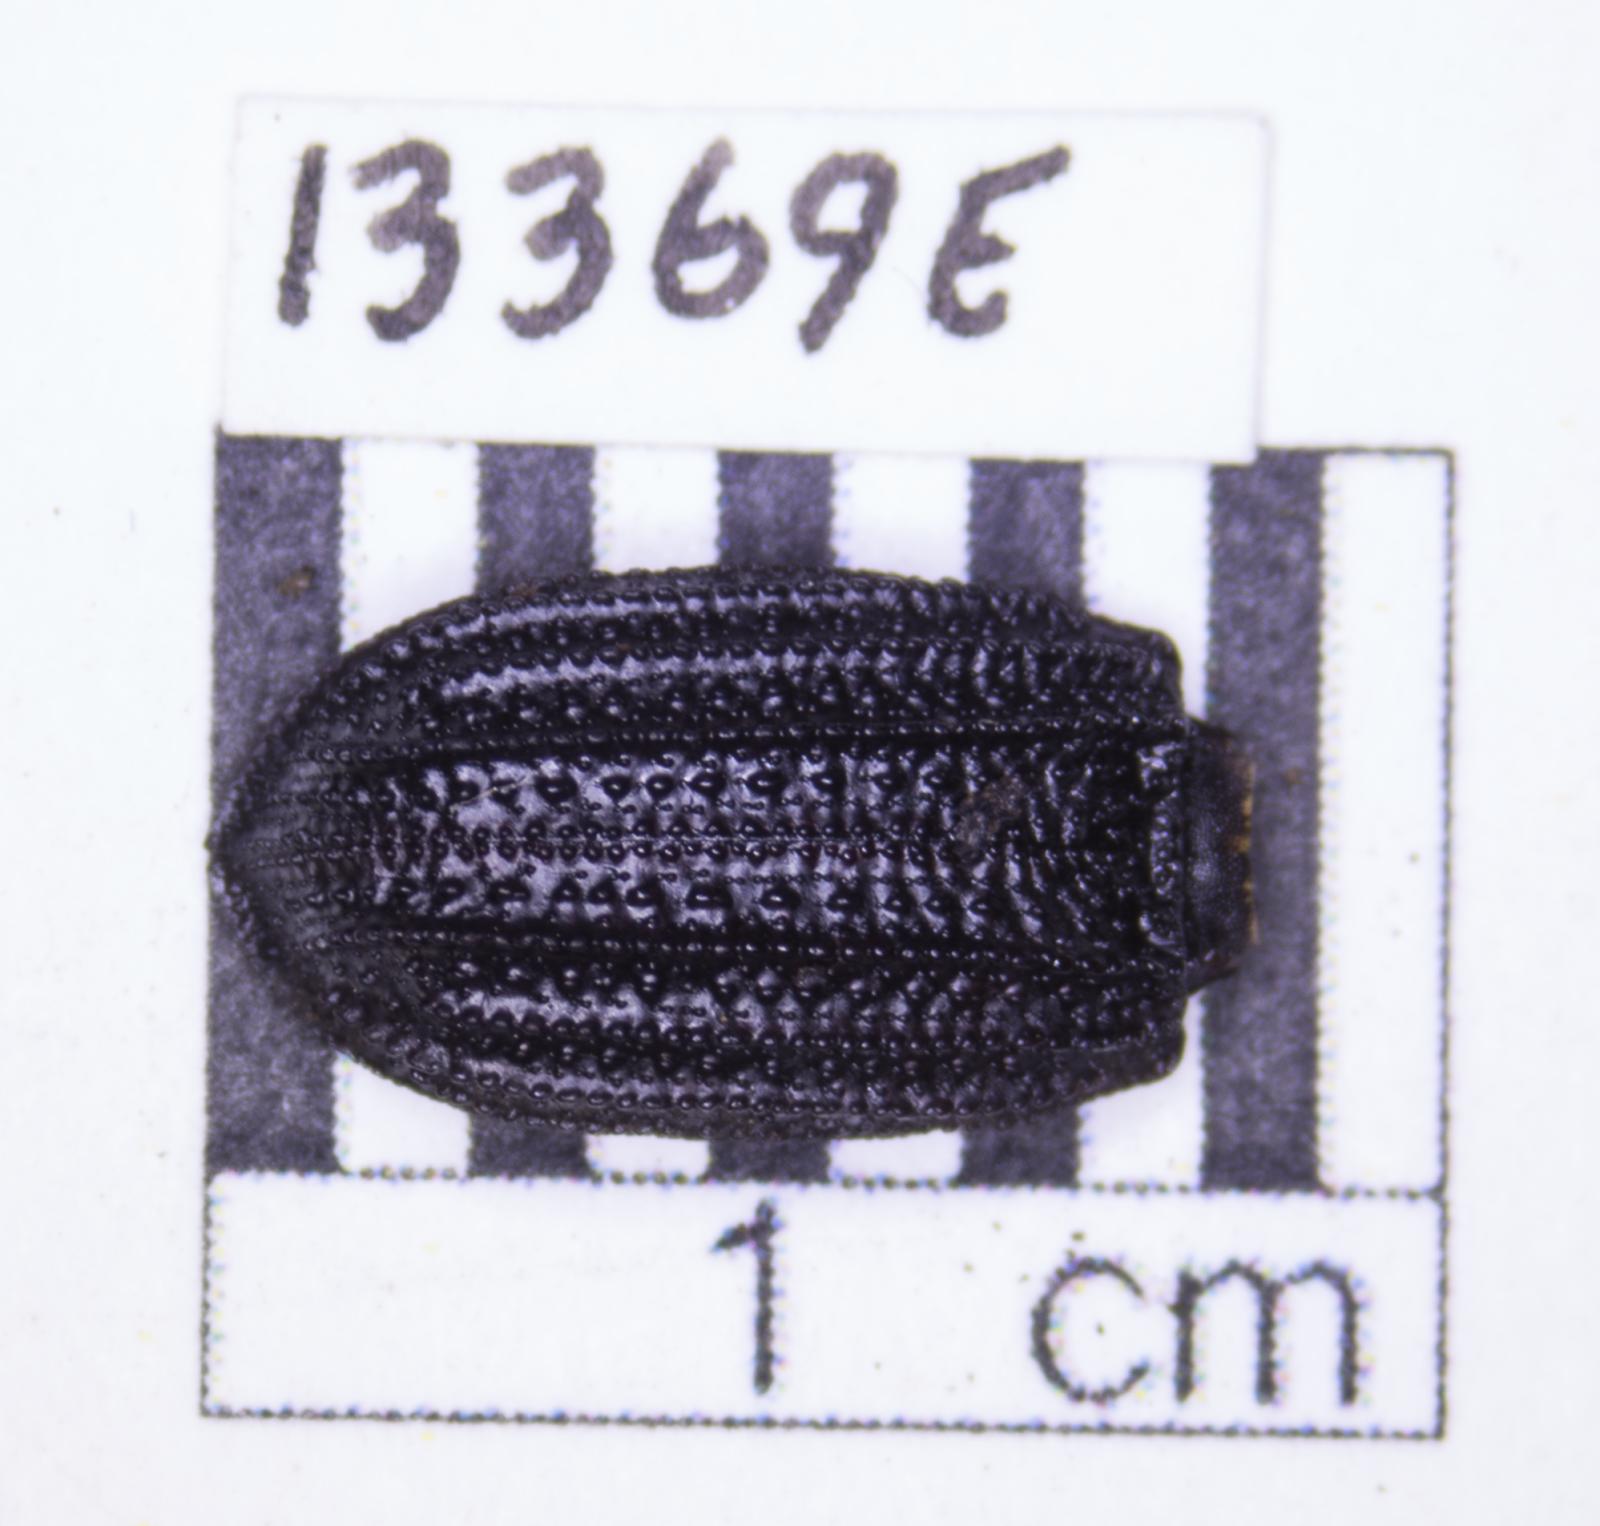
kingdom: Animalia
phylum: Arthropoda
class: Insecta
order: Coleoptera
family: Tenebrionidae
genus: Nyctoporis
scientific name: Nyctoporis carinata
